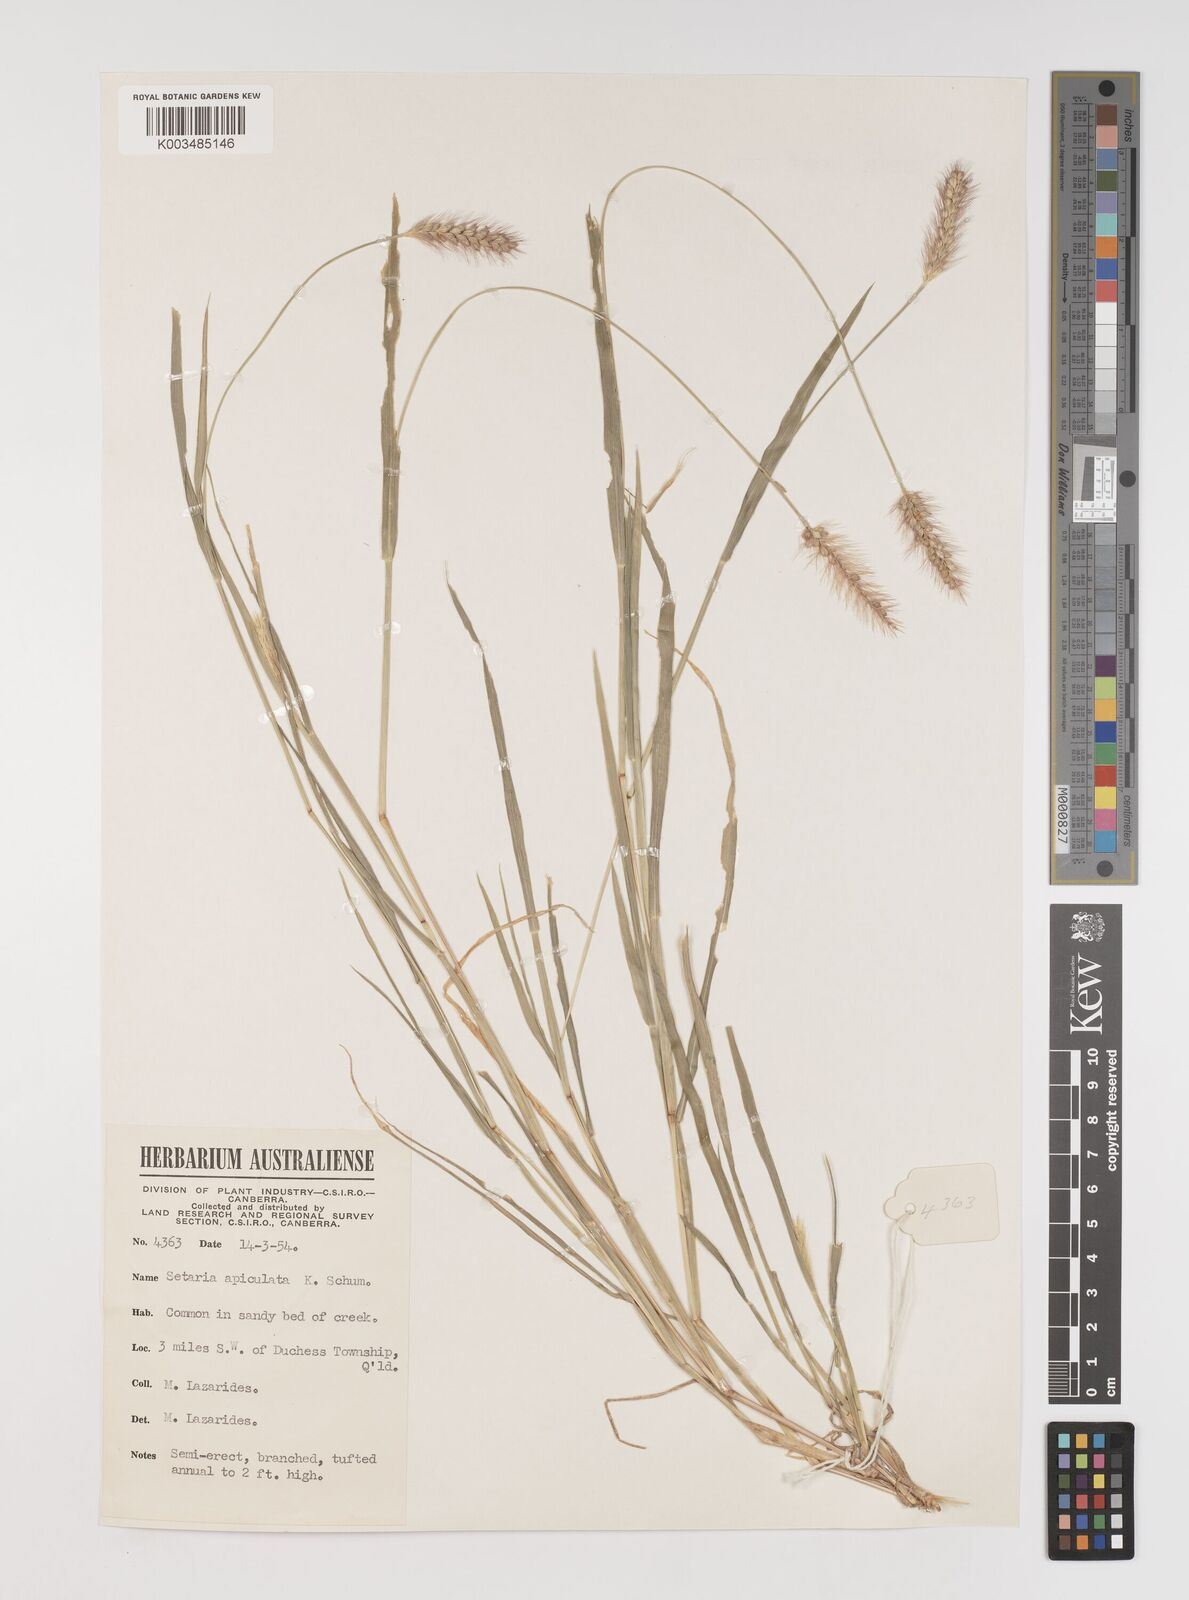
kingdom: Plantae
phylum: Tracheophyta
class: Liliopsida
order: Poales
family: Poaceae
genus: Setaria
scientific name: Setaria apiculata
